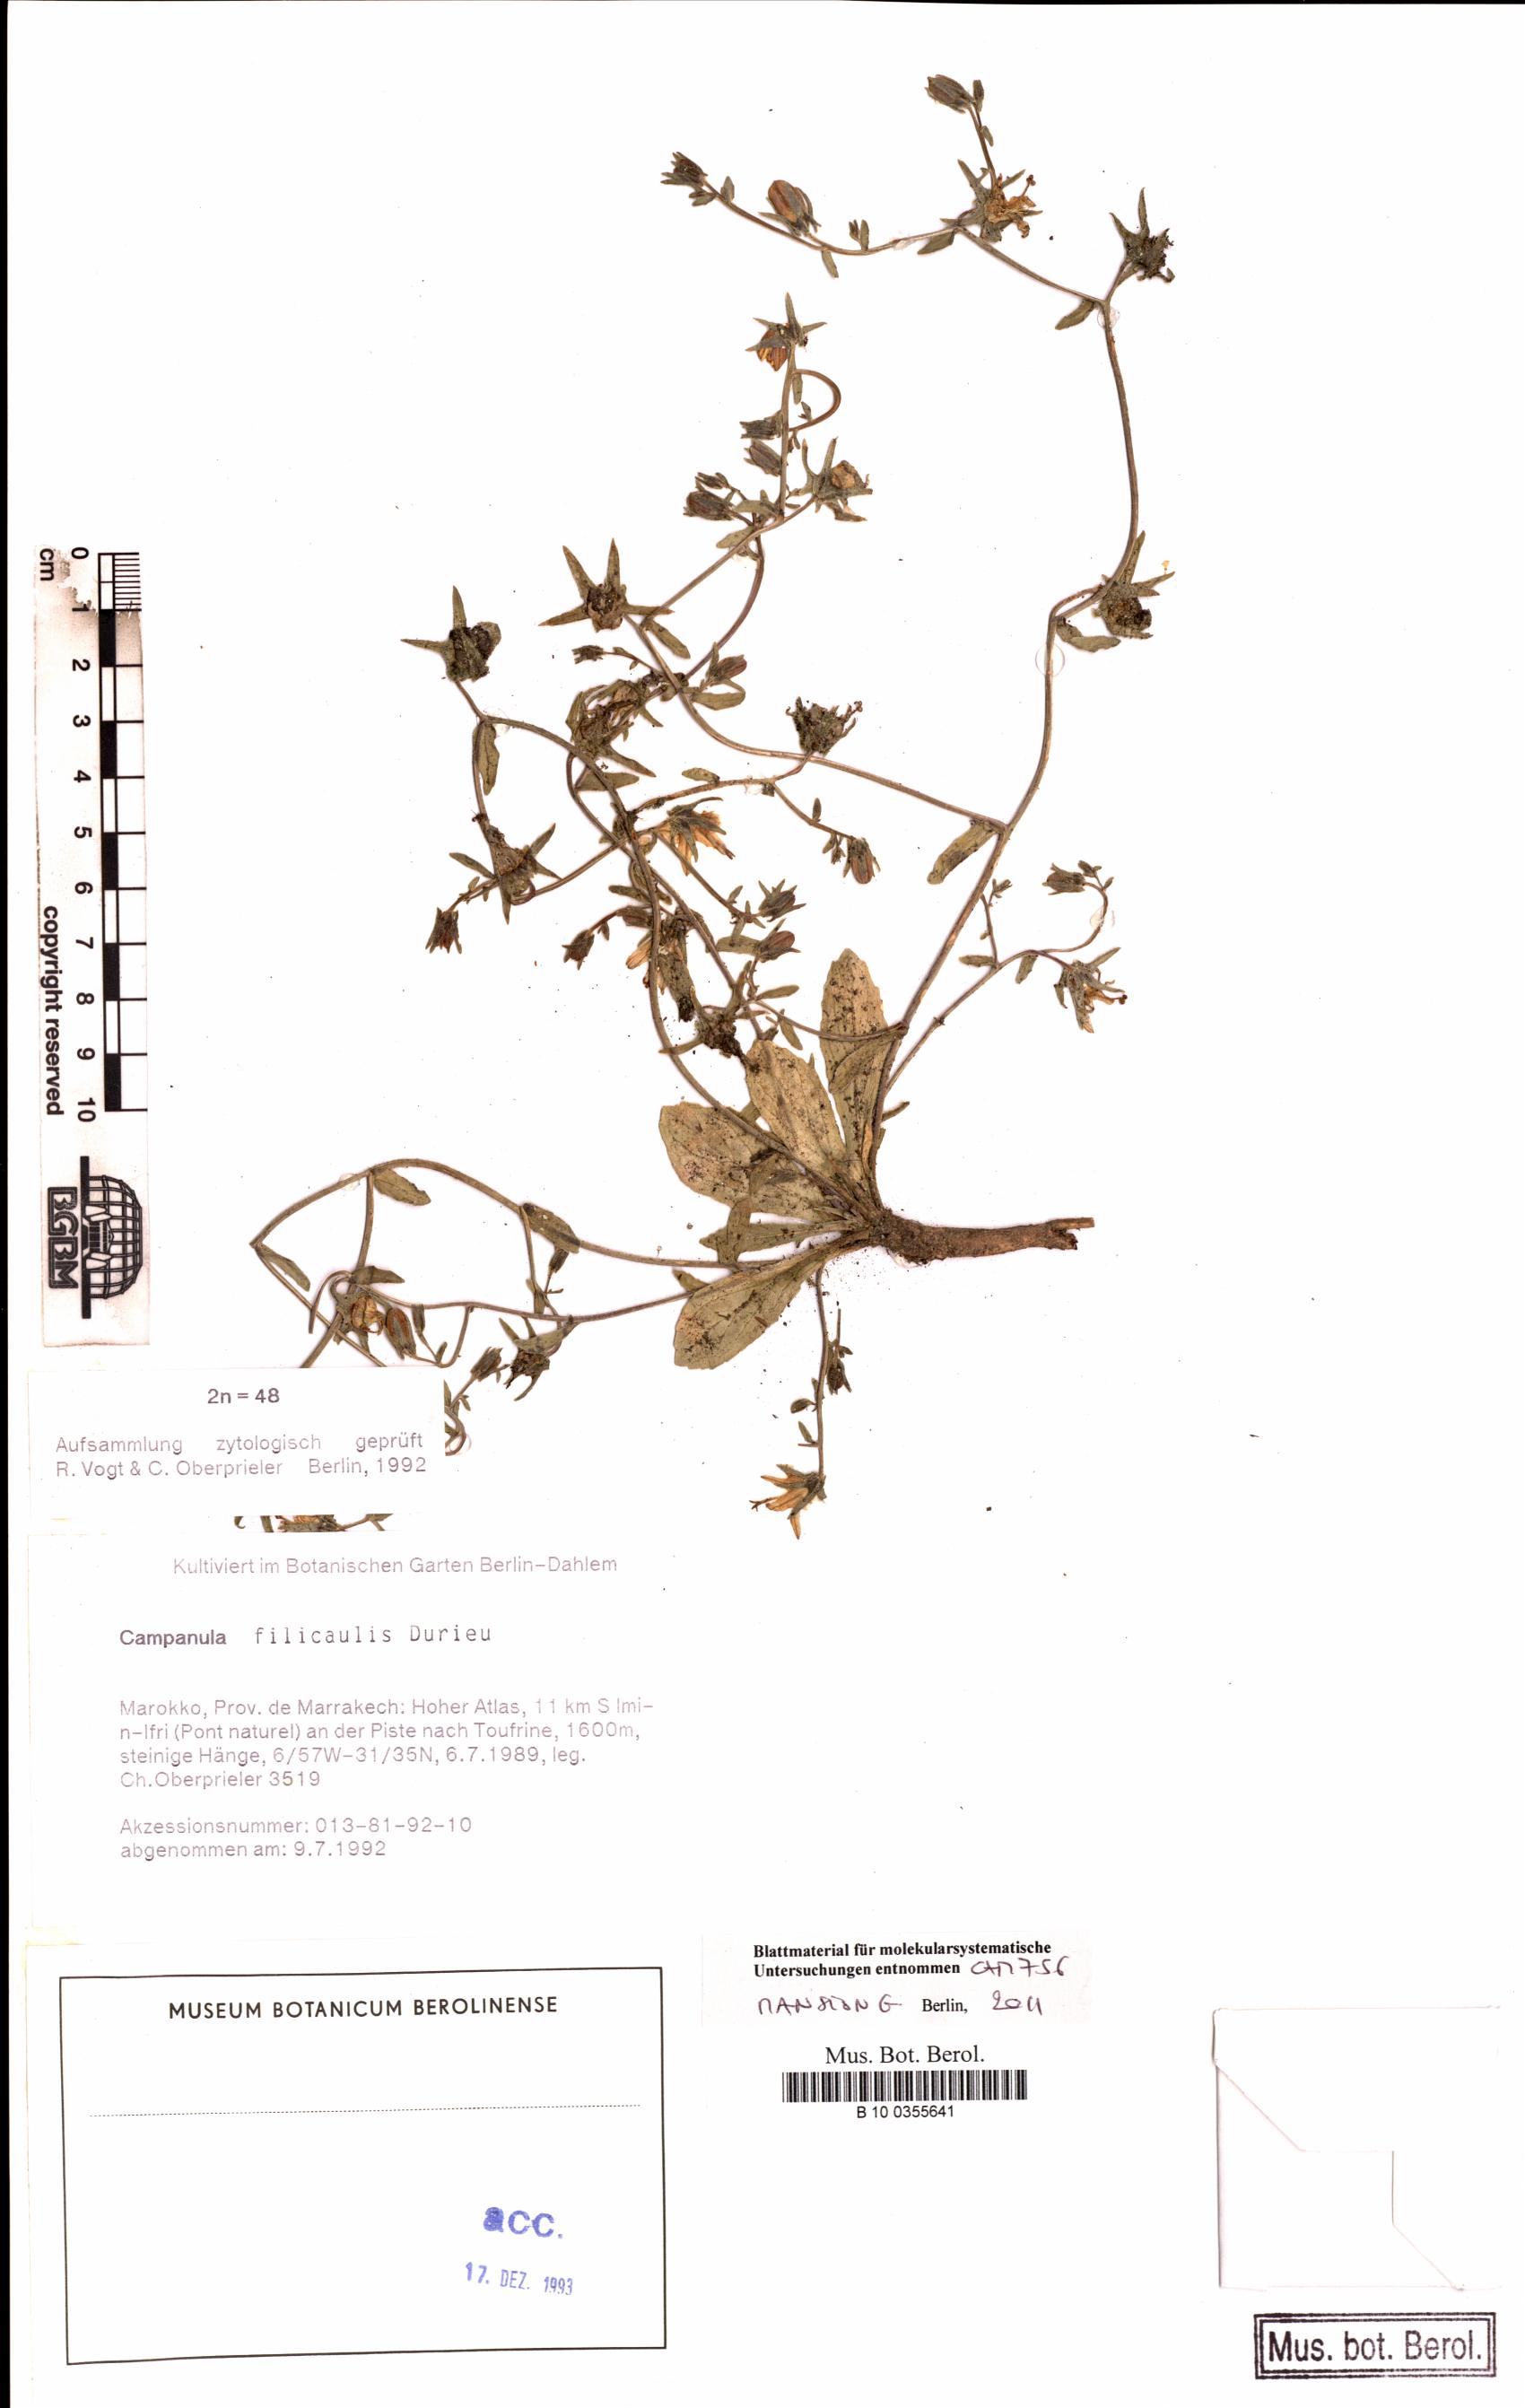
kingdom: Plantae
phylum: Tracheophyta
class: Magnoliopsida
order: Asterales
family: Campanulaceae
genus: Campanula
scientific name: Campanula filicaulis
